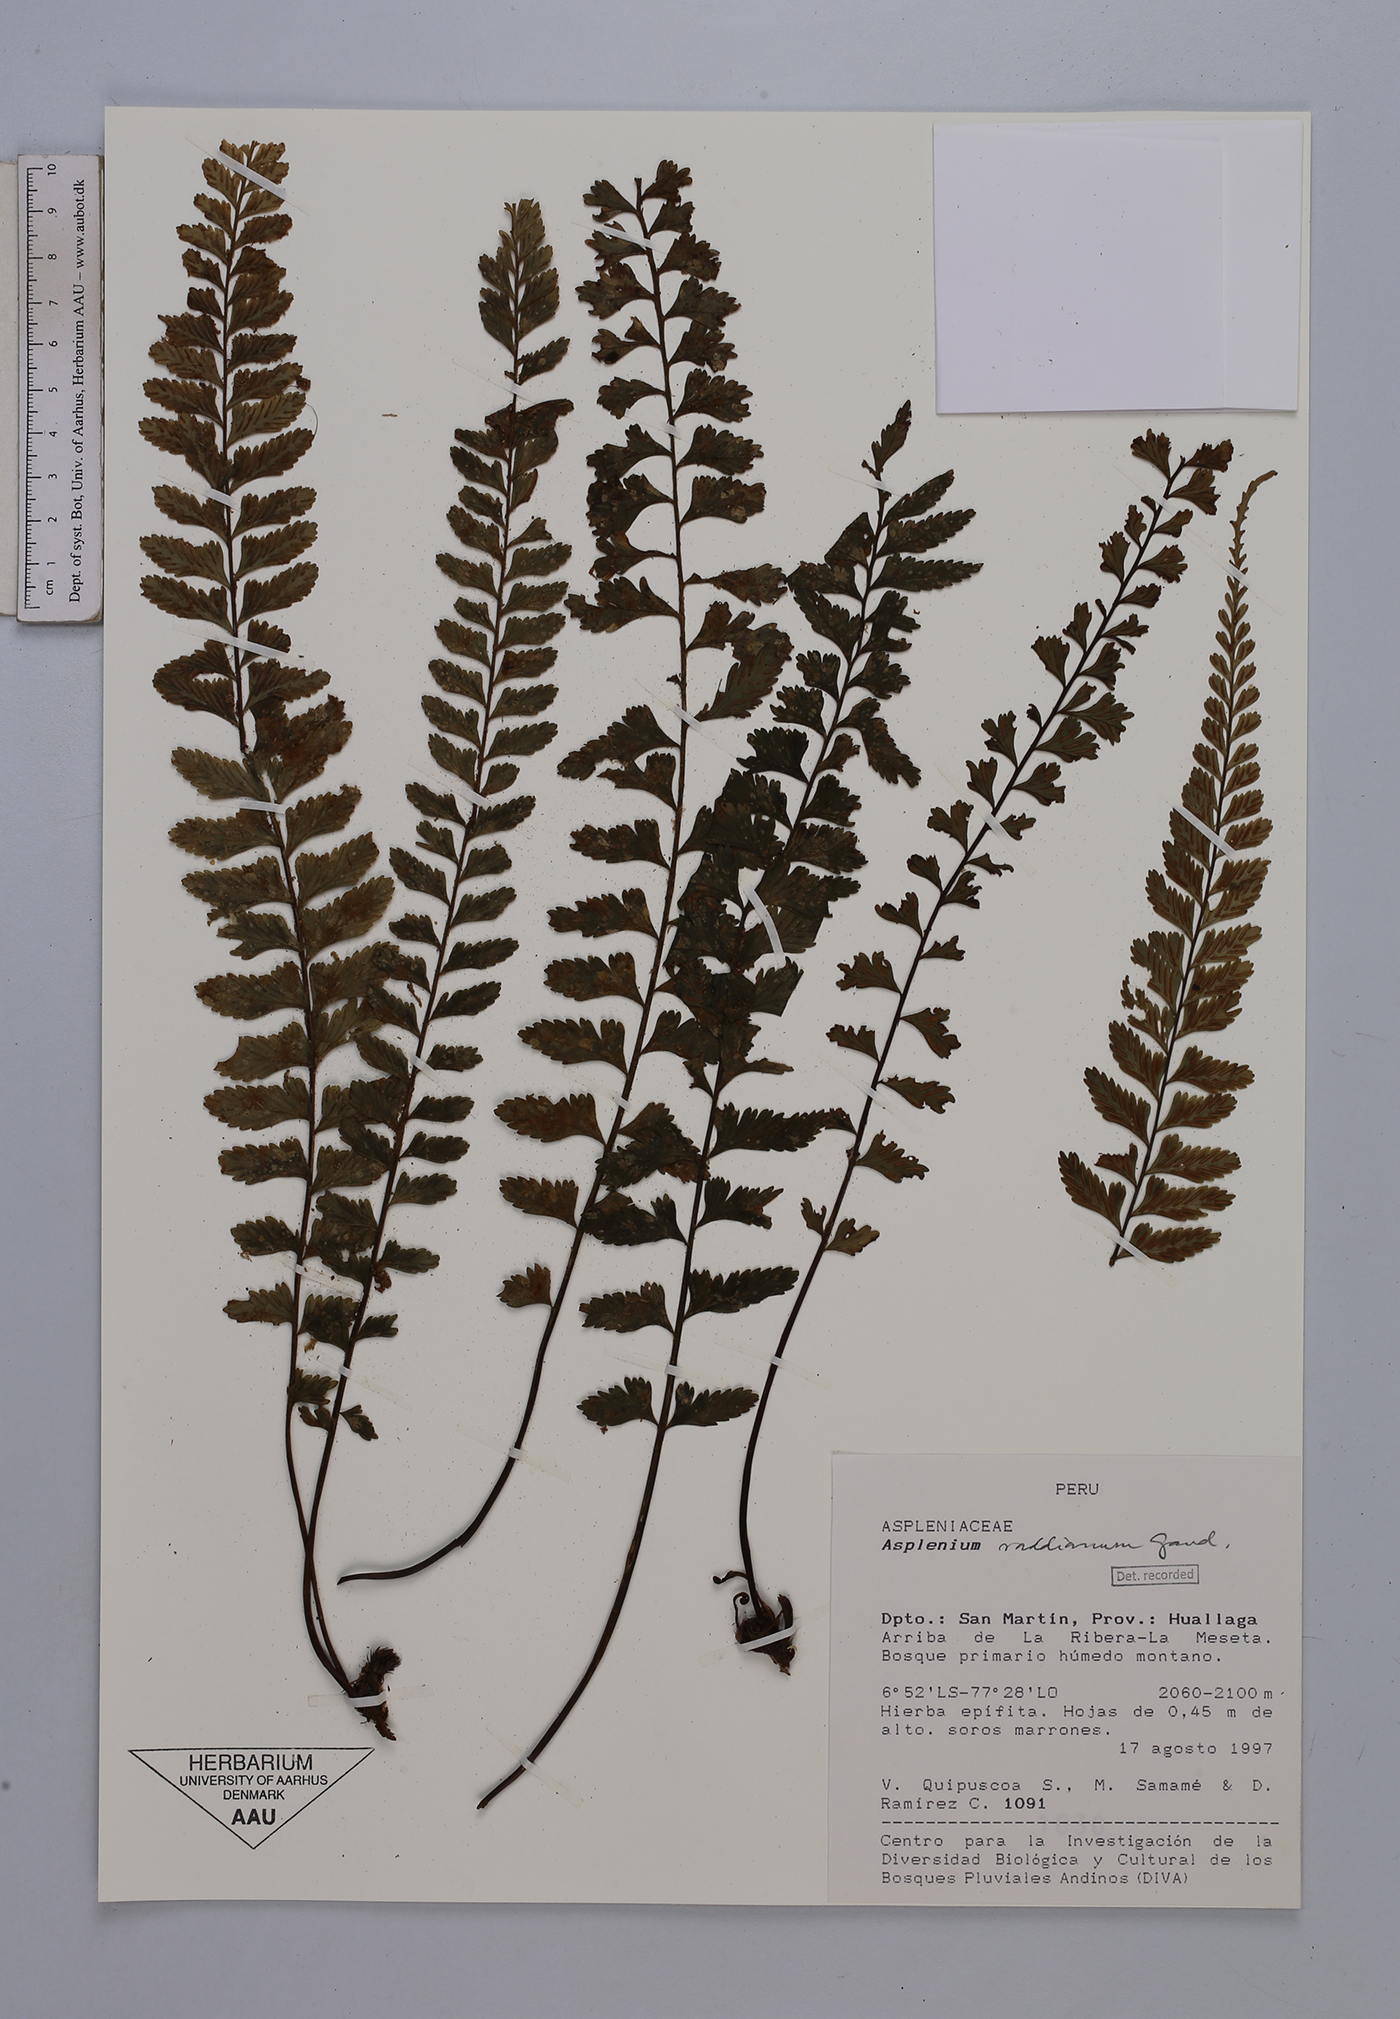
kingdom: Plantae
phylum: Tracheophyta
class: Polypodiopsida
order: Polypodiales
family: Aspleniaceae
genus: Asplenium
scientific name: Asplenium raddianum
